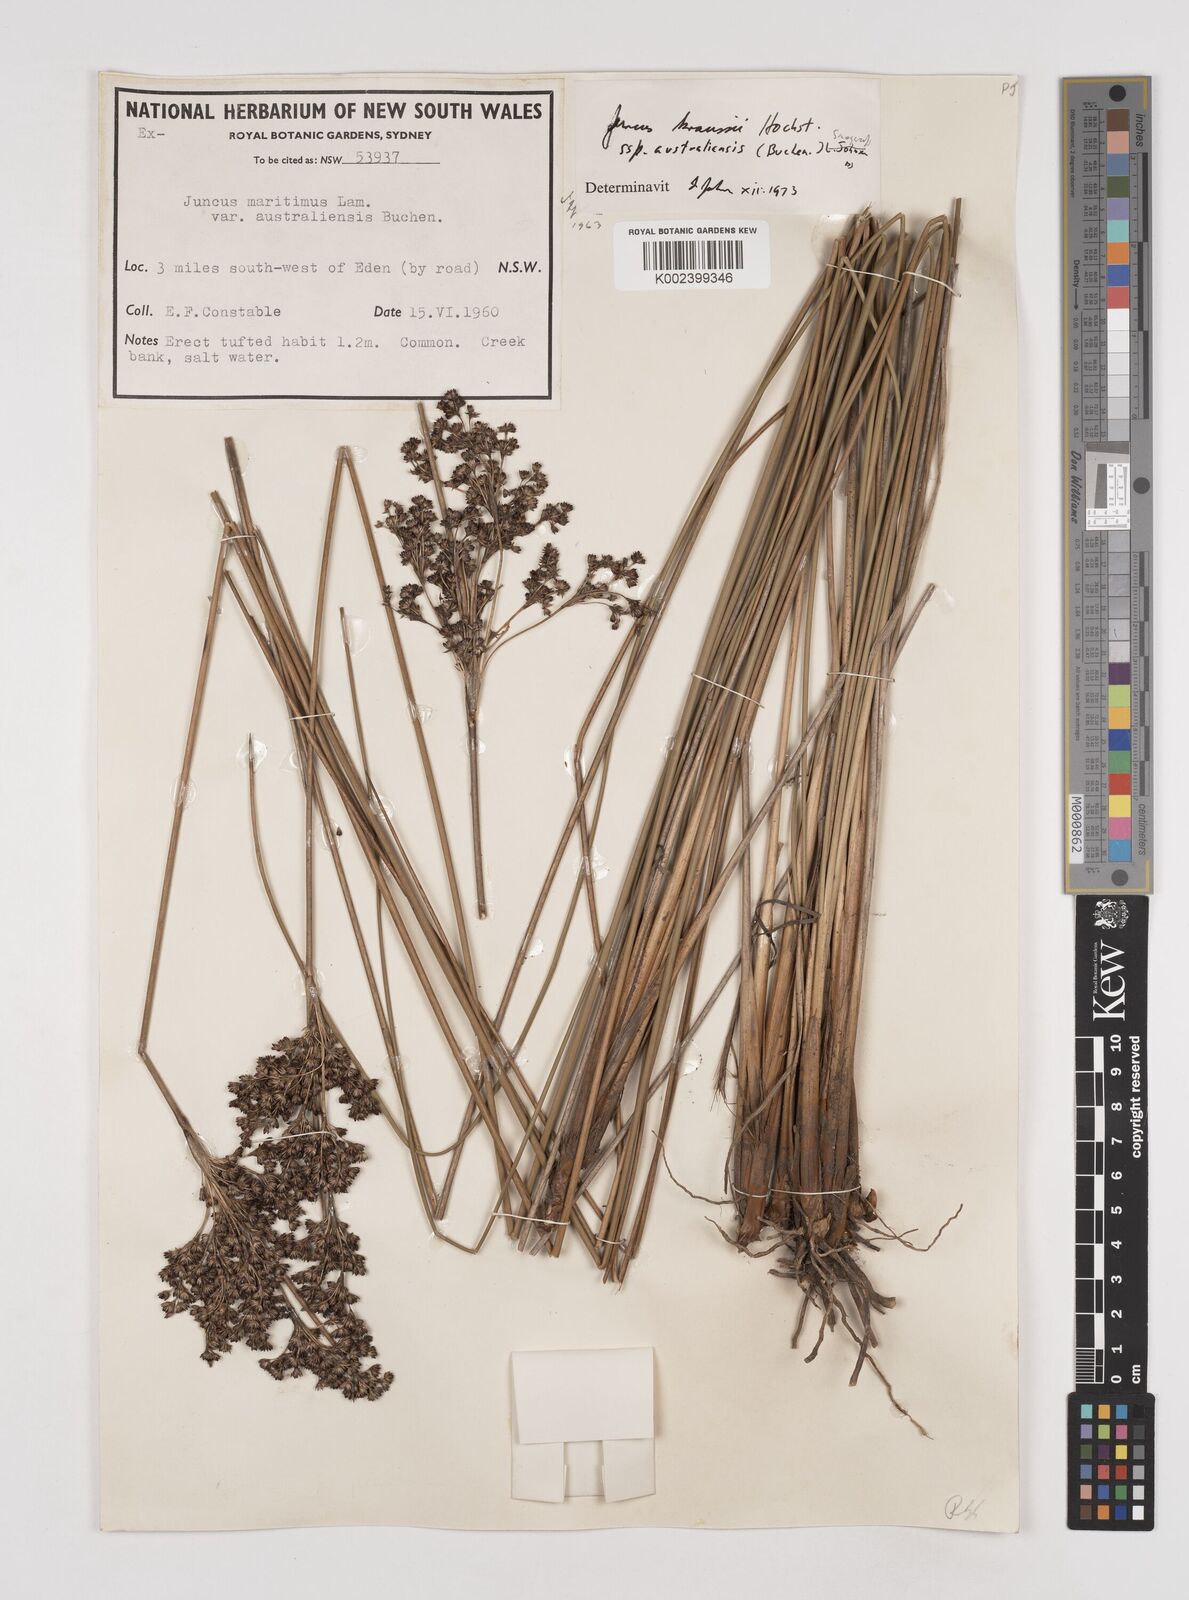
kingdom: Plantae
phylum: Tracheophyta
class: Liliopsida
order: Poales
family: Juncaceae
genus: Juncus
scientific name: Juncus kraussii
